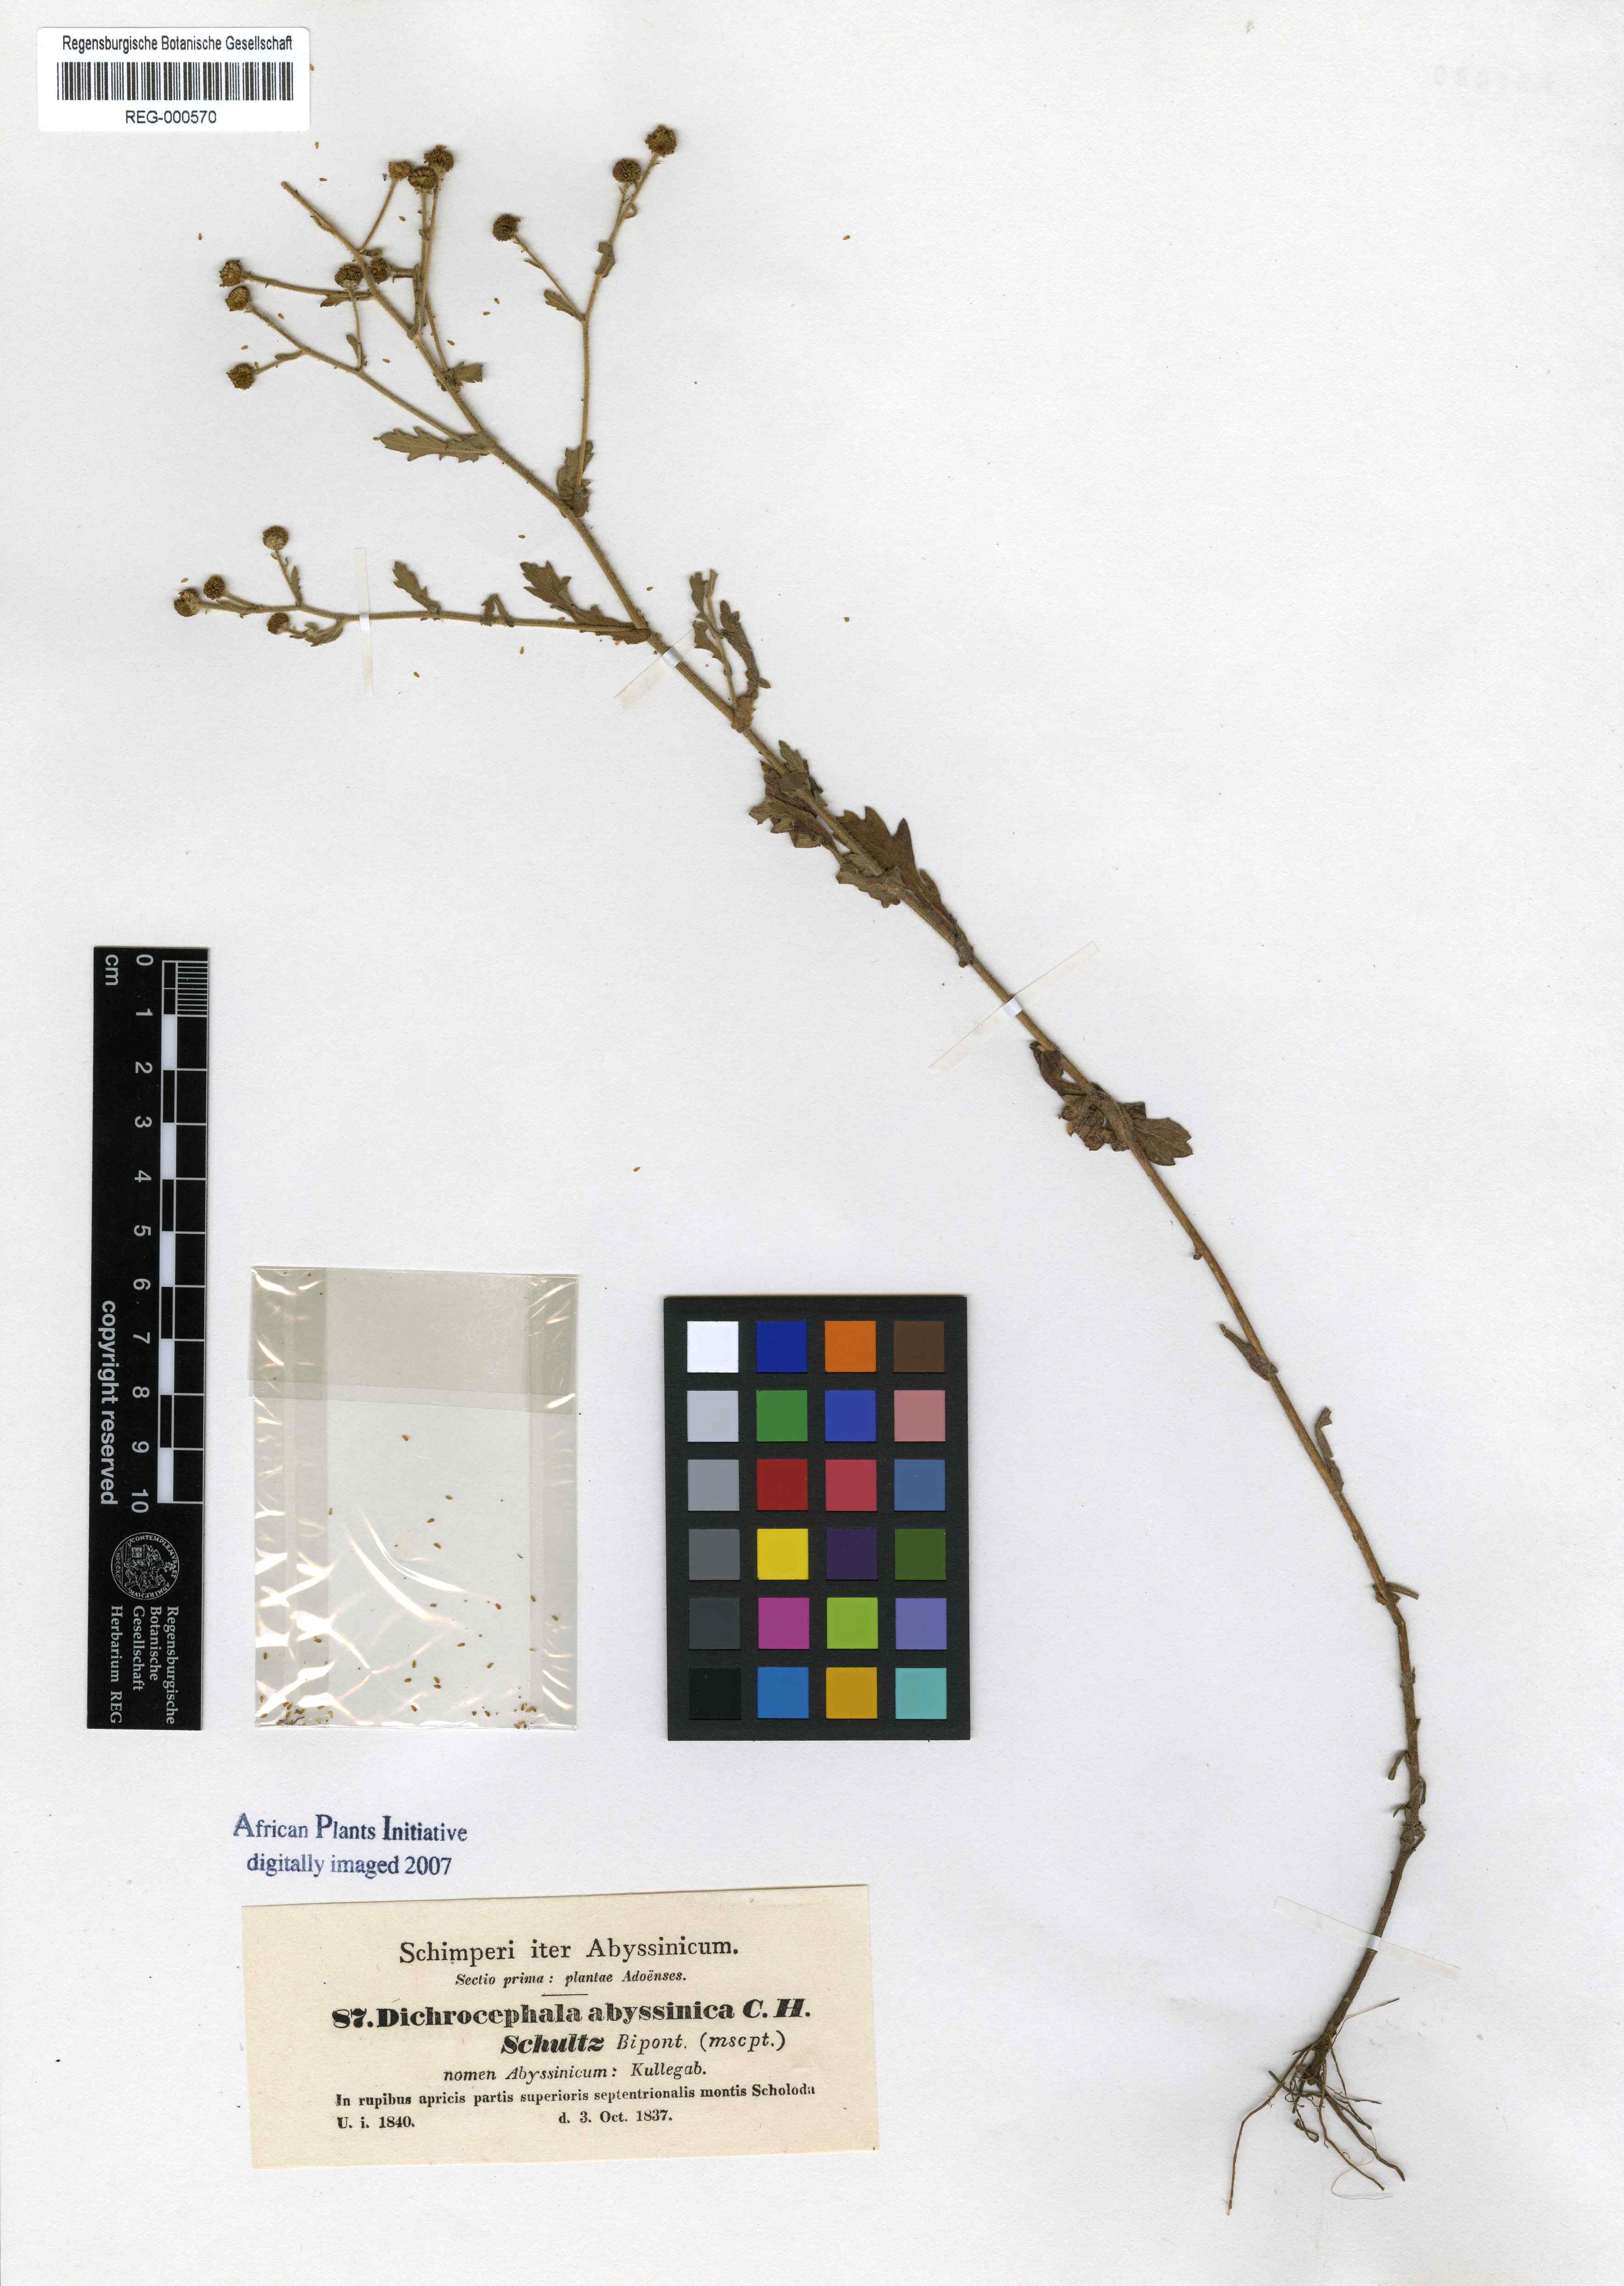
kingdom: Plantae
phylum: Tracheophyta
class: Magnoliopsida
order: Asterales
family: Asteraceae
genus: Dichrocephala
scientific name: Dichrocephala chrysanthemifolia
